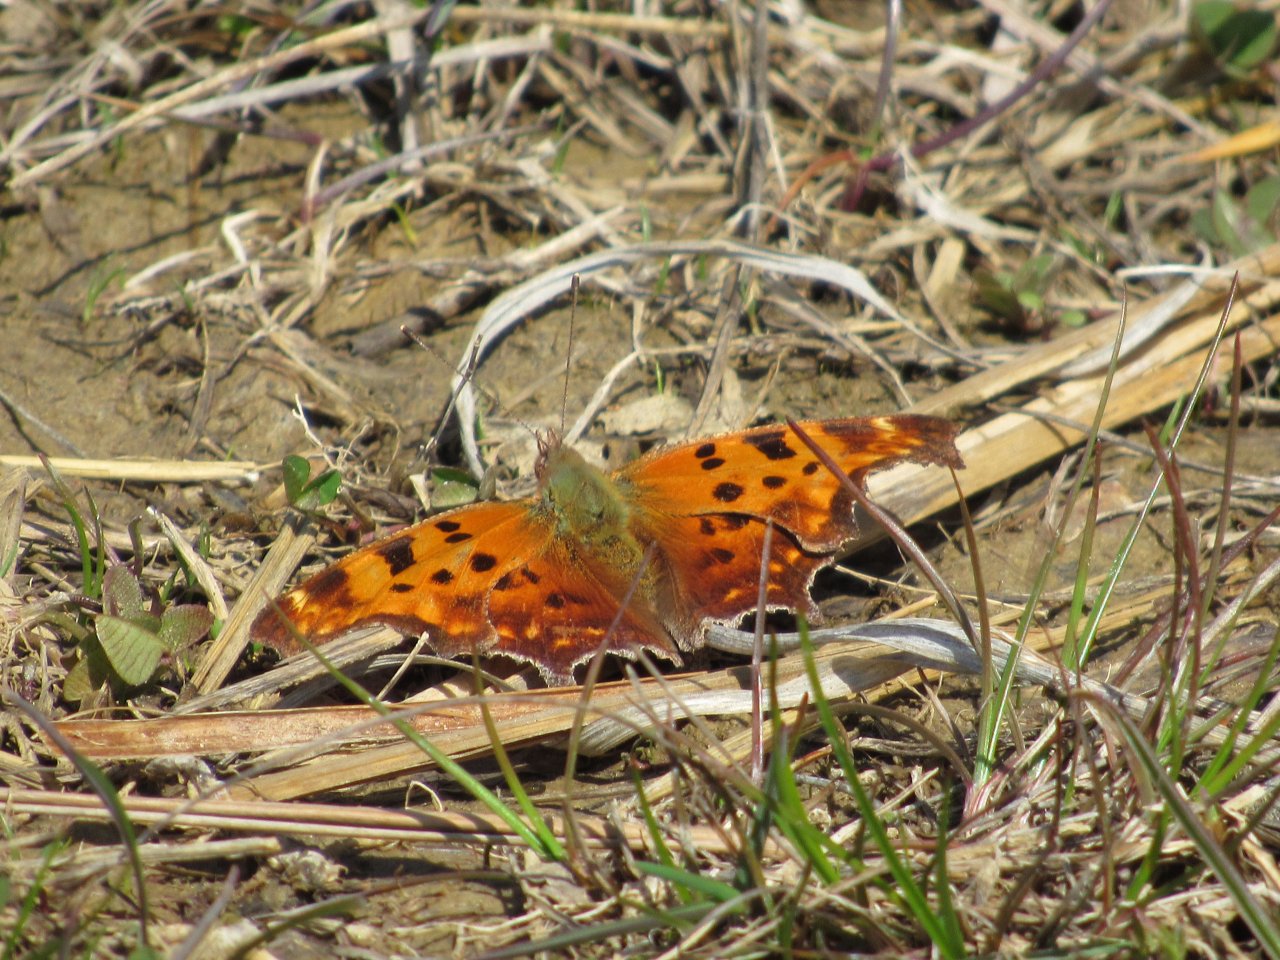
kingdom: Animalia
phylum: Arthropoda
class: Insecta
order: Lepidoptera
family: Nymphalidae
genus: Polygonia
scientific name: Polygonia comma
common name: Eastern Comma
